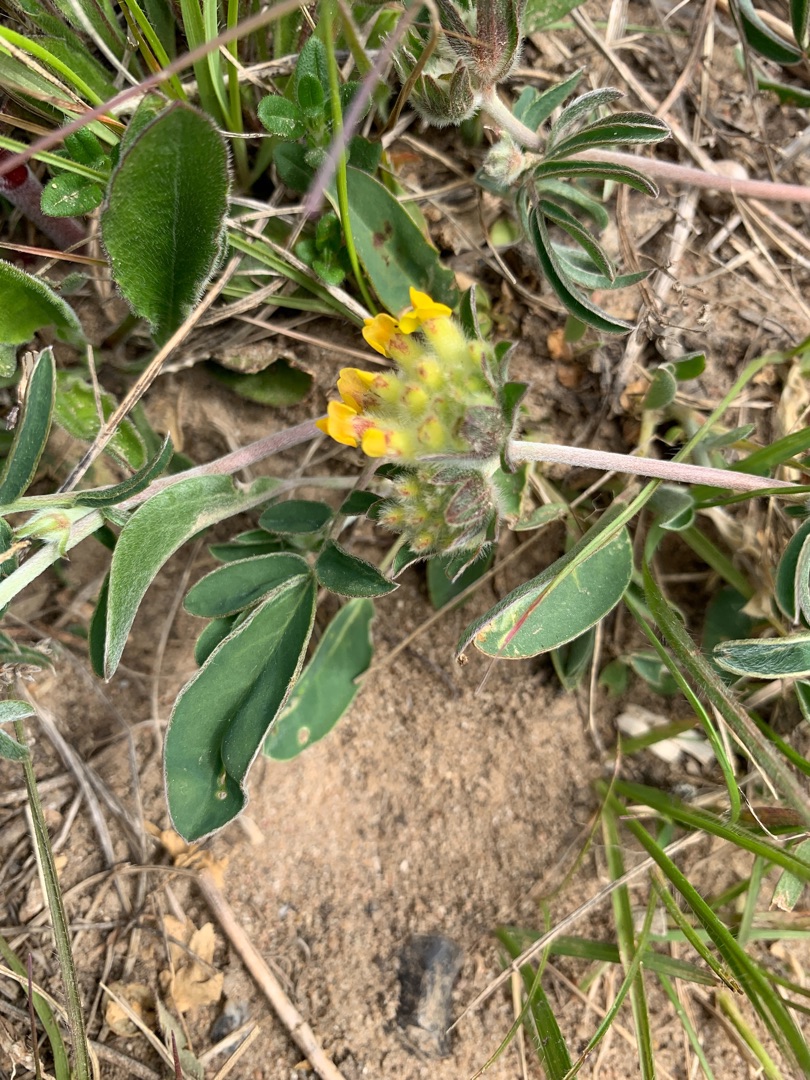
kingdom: Plantae
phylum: Tracheophyta
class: Magnoliopsida
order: Fabales
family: Fabaceae
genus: Anthyllis
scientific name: Anthyllis vulneraria
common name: Rundbælg
